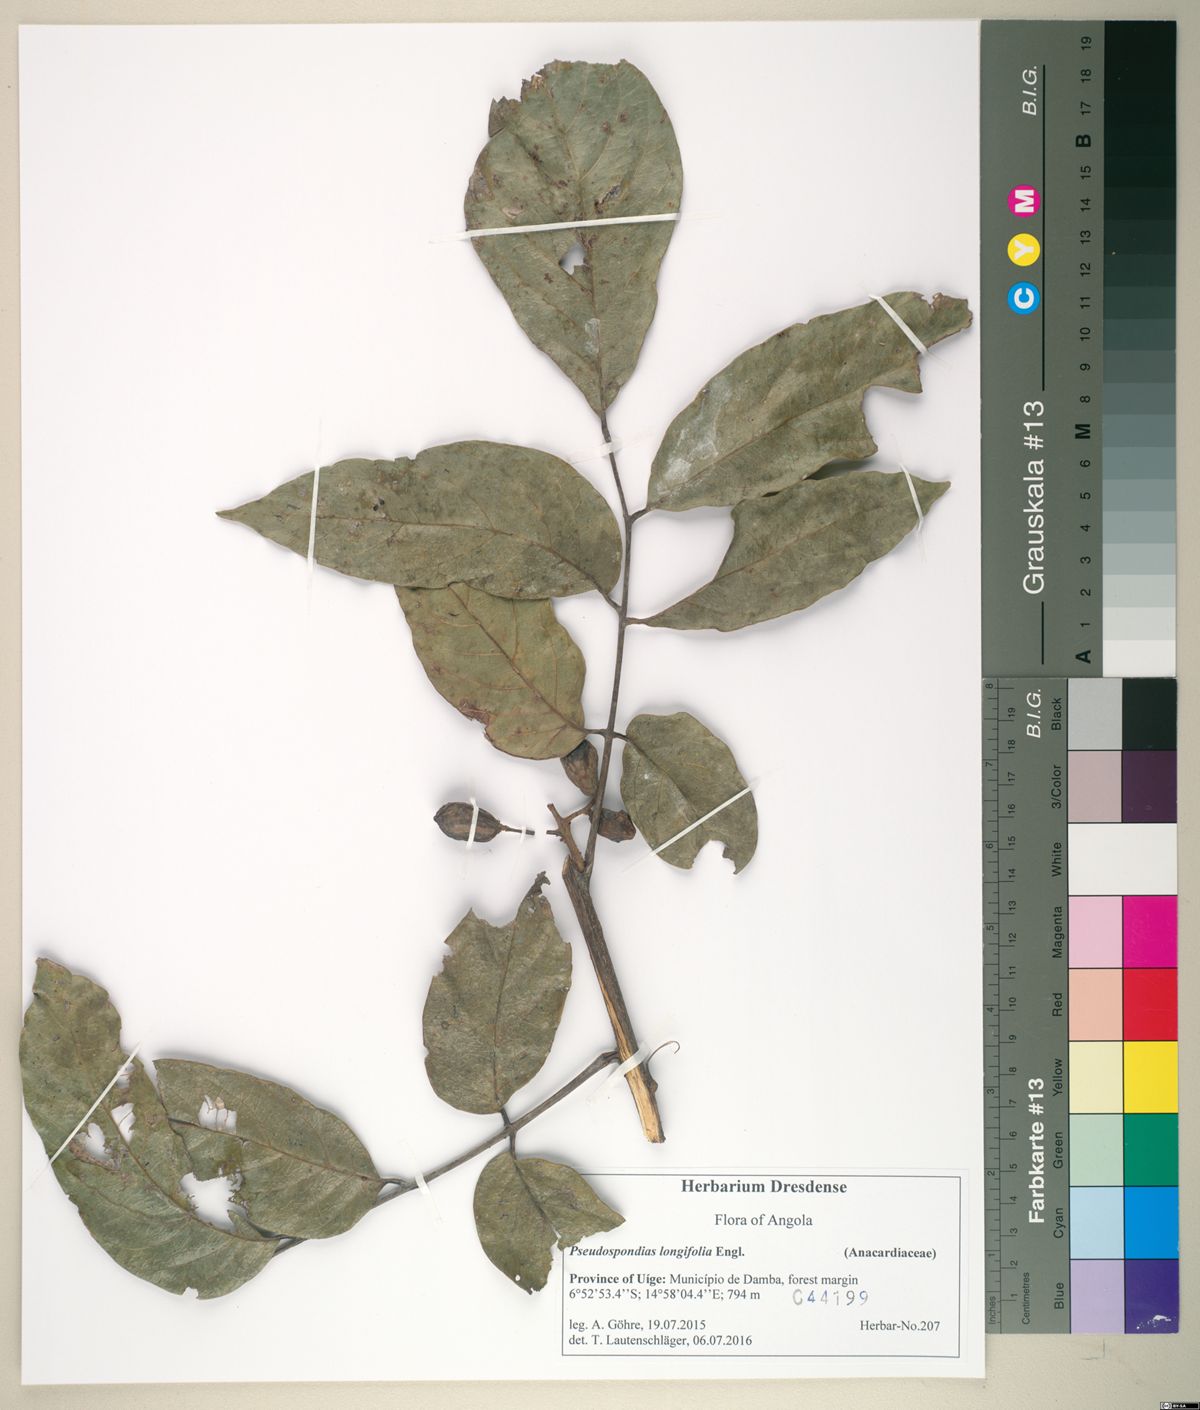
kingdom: Plantae
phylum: Tracheophyta
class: Magnoliopsida
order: Sapindales
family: Anacardiaceae
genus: Pseudospondias
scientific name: Pseudospondias microcarpa
